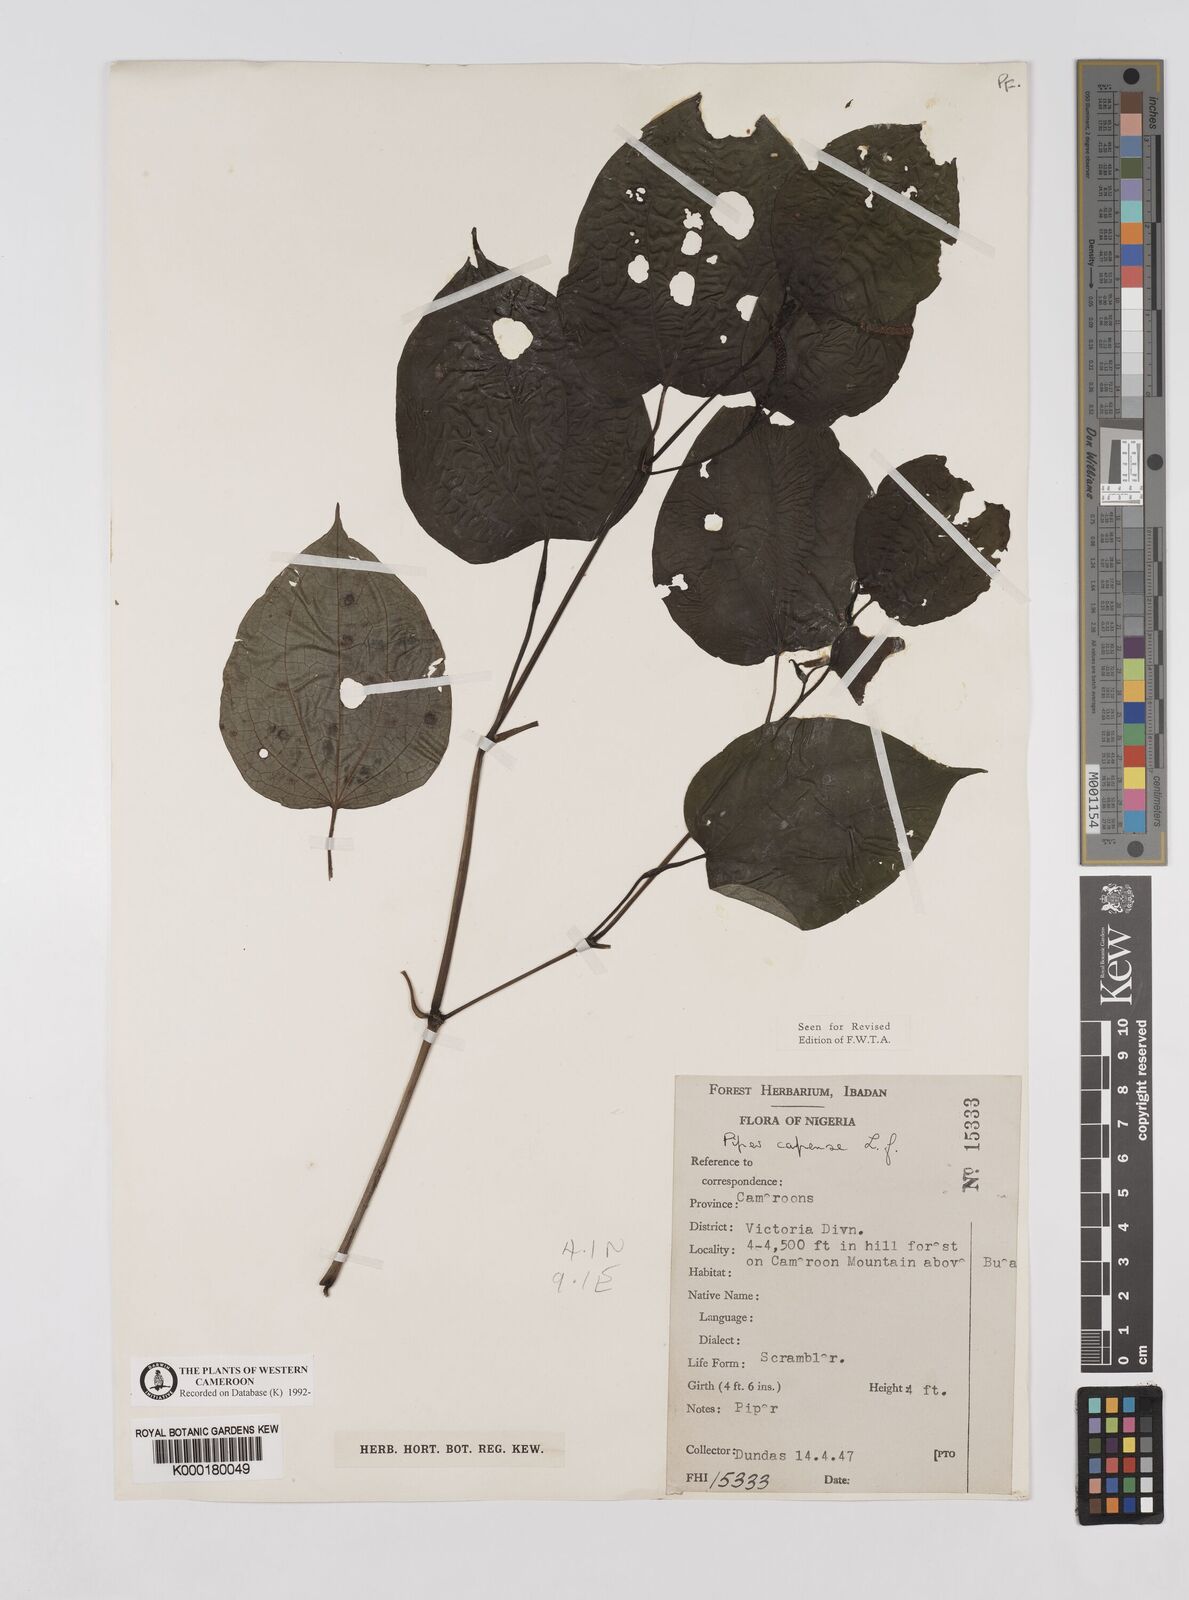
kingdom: Plantae
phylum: Tracheophyta
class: Magnoliopsida
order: Piperales
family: Piperaceae
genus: Piper
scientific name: Piper capense
